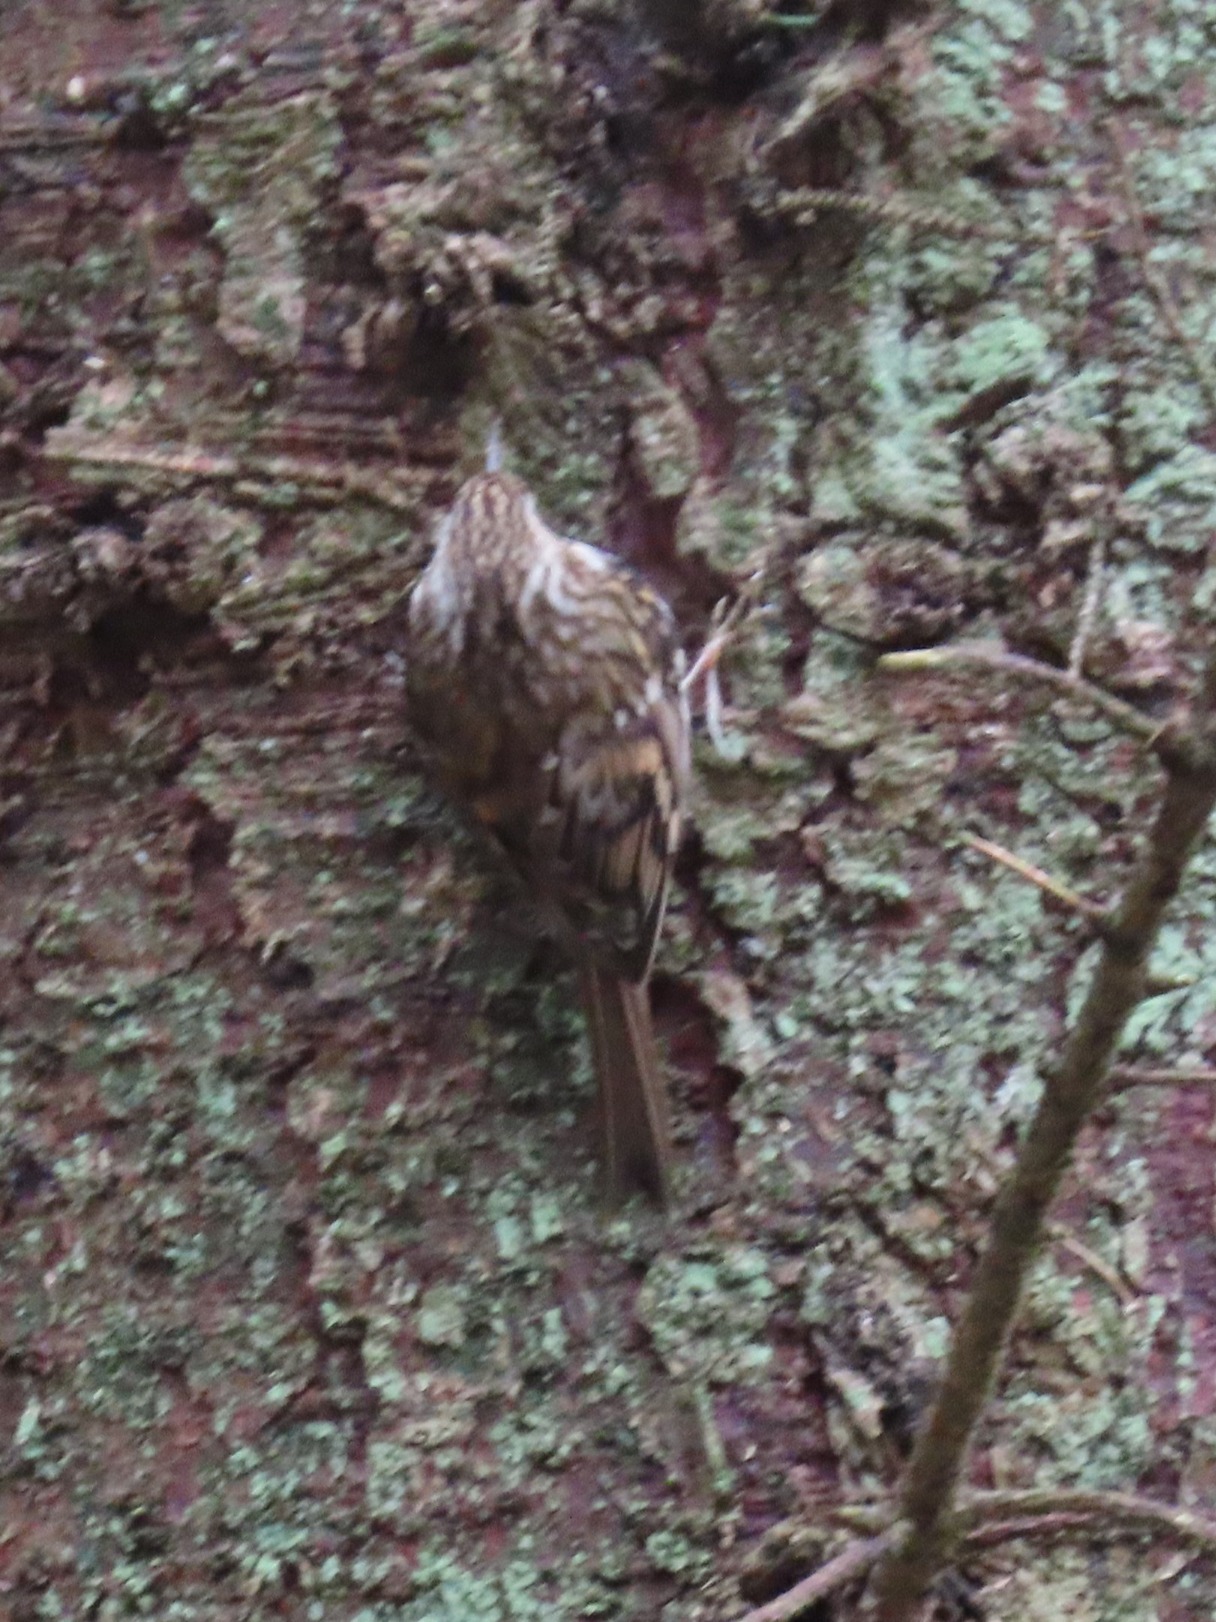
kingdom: Animalia
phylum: Chordata
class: Aves
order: Passeriformes
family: Certhiidae
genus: Certhia
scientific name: Certhia familiaris
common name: Træløber
